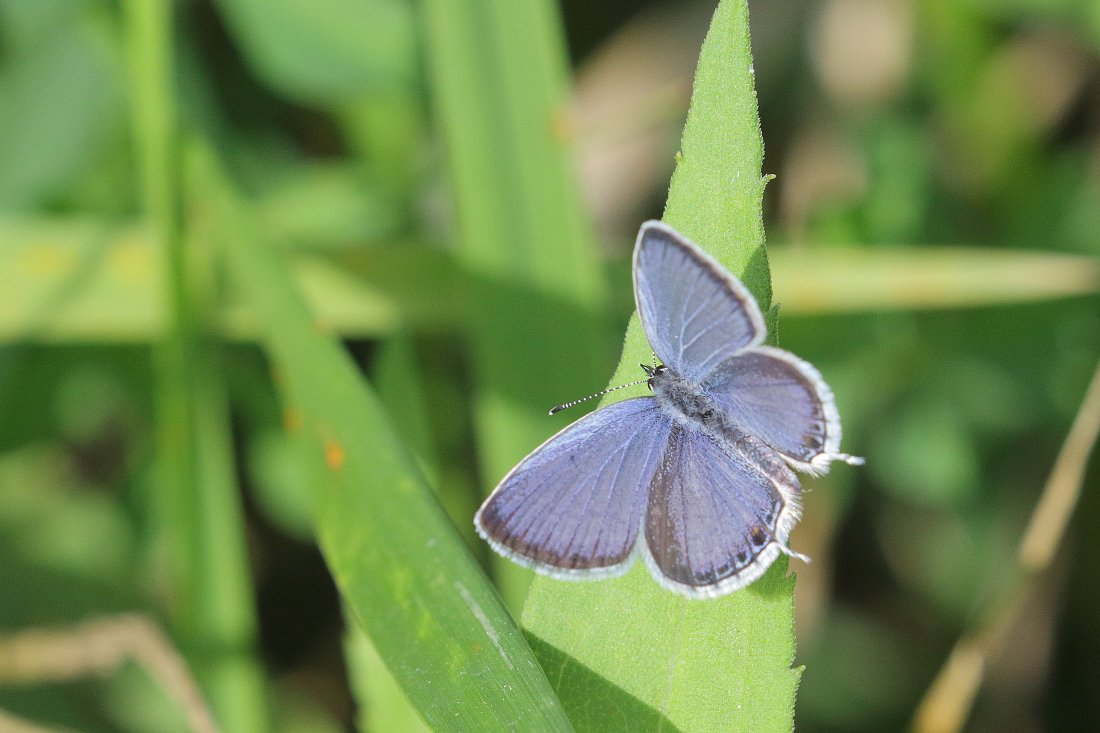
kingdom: Animalia
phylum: Arthropoda
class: Insecta
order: Lepidoptera
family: Lycaenidae
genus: Elkalyce
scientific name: Elkalyce comyntas
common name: Eastern Tailed-Blue
